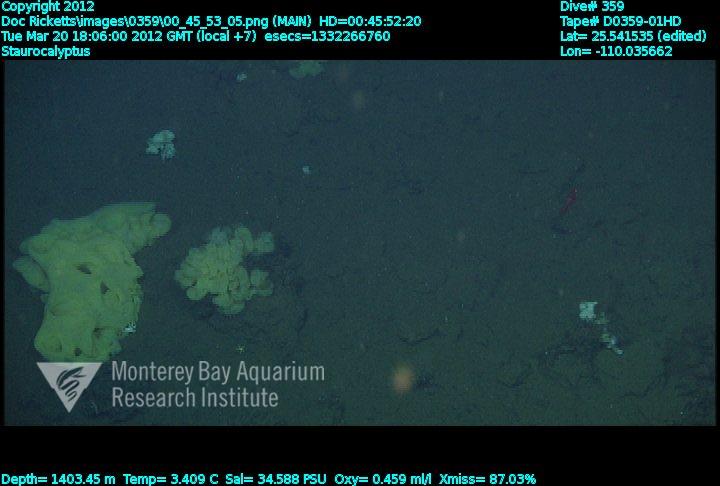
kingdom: Animalia
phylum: Porifera
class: Hexactinellida
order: Lyssacinosida
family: Rossellidae
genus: Staurocalyptus
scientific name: Staurocalyptus
